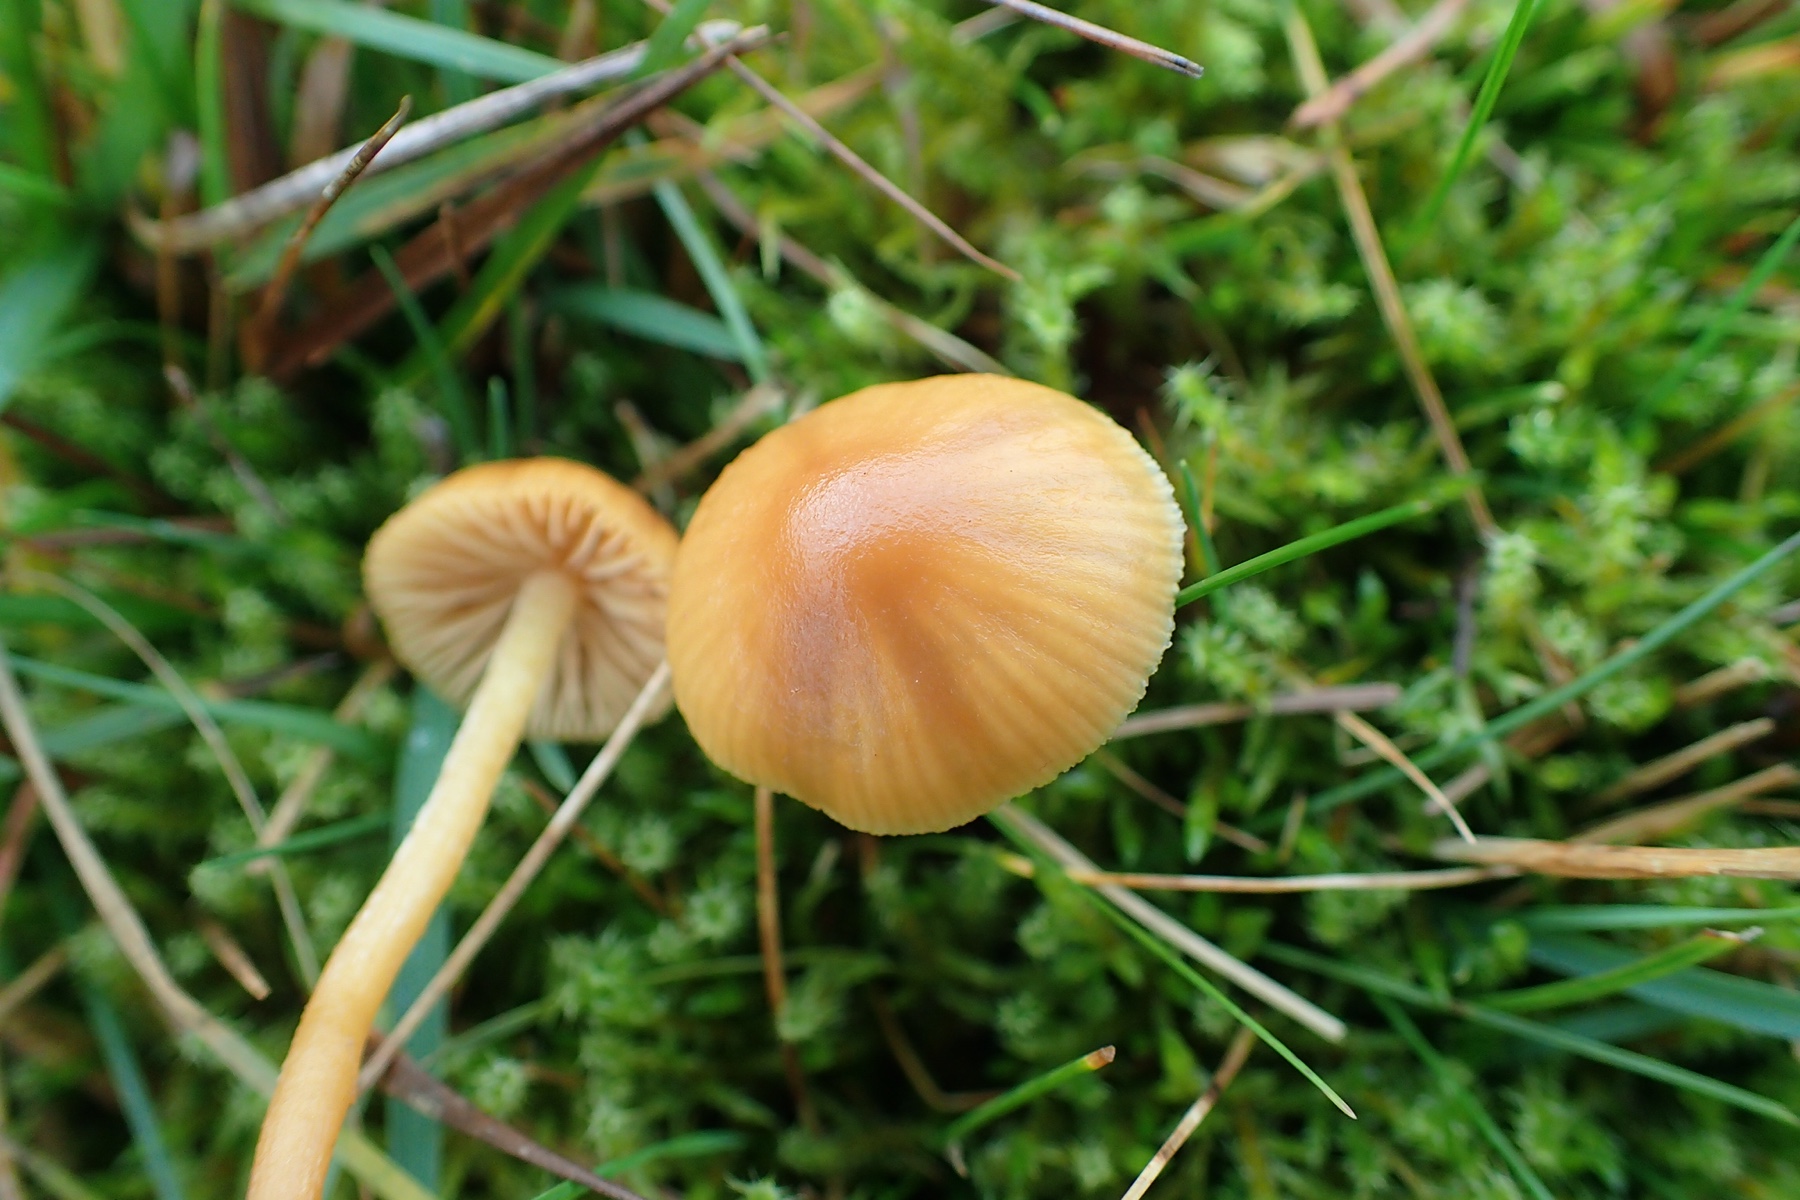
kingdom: Fungi
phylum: Basidiomycota
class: Agaricomycetes
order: Agaricales
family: Hymenogastraceae
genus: Galerina
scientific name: Galerina
